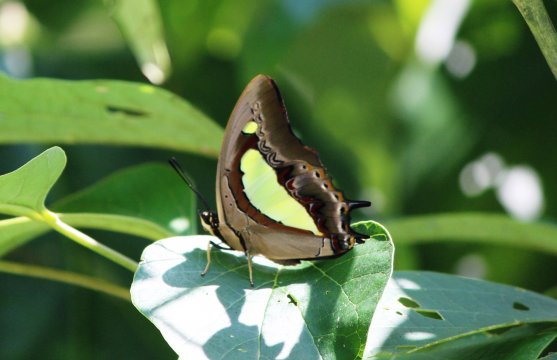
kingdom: Animalia
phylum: Arthropoda
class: Insecta
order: Lepidoptera
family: Nymphalidae
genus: Polyura
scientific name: Polyura athamas
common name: Common Nawab
